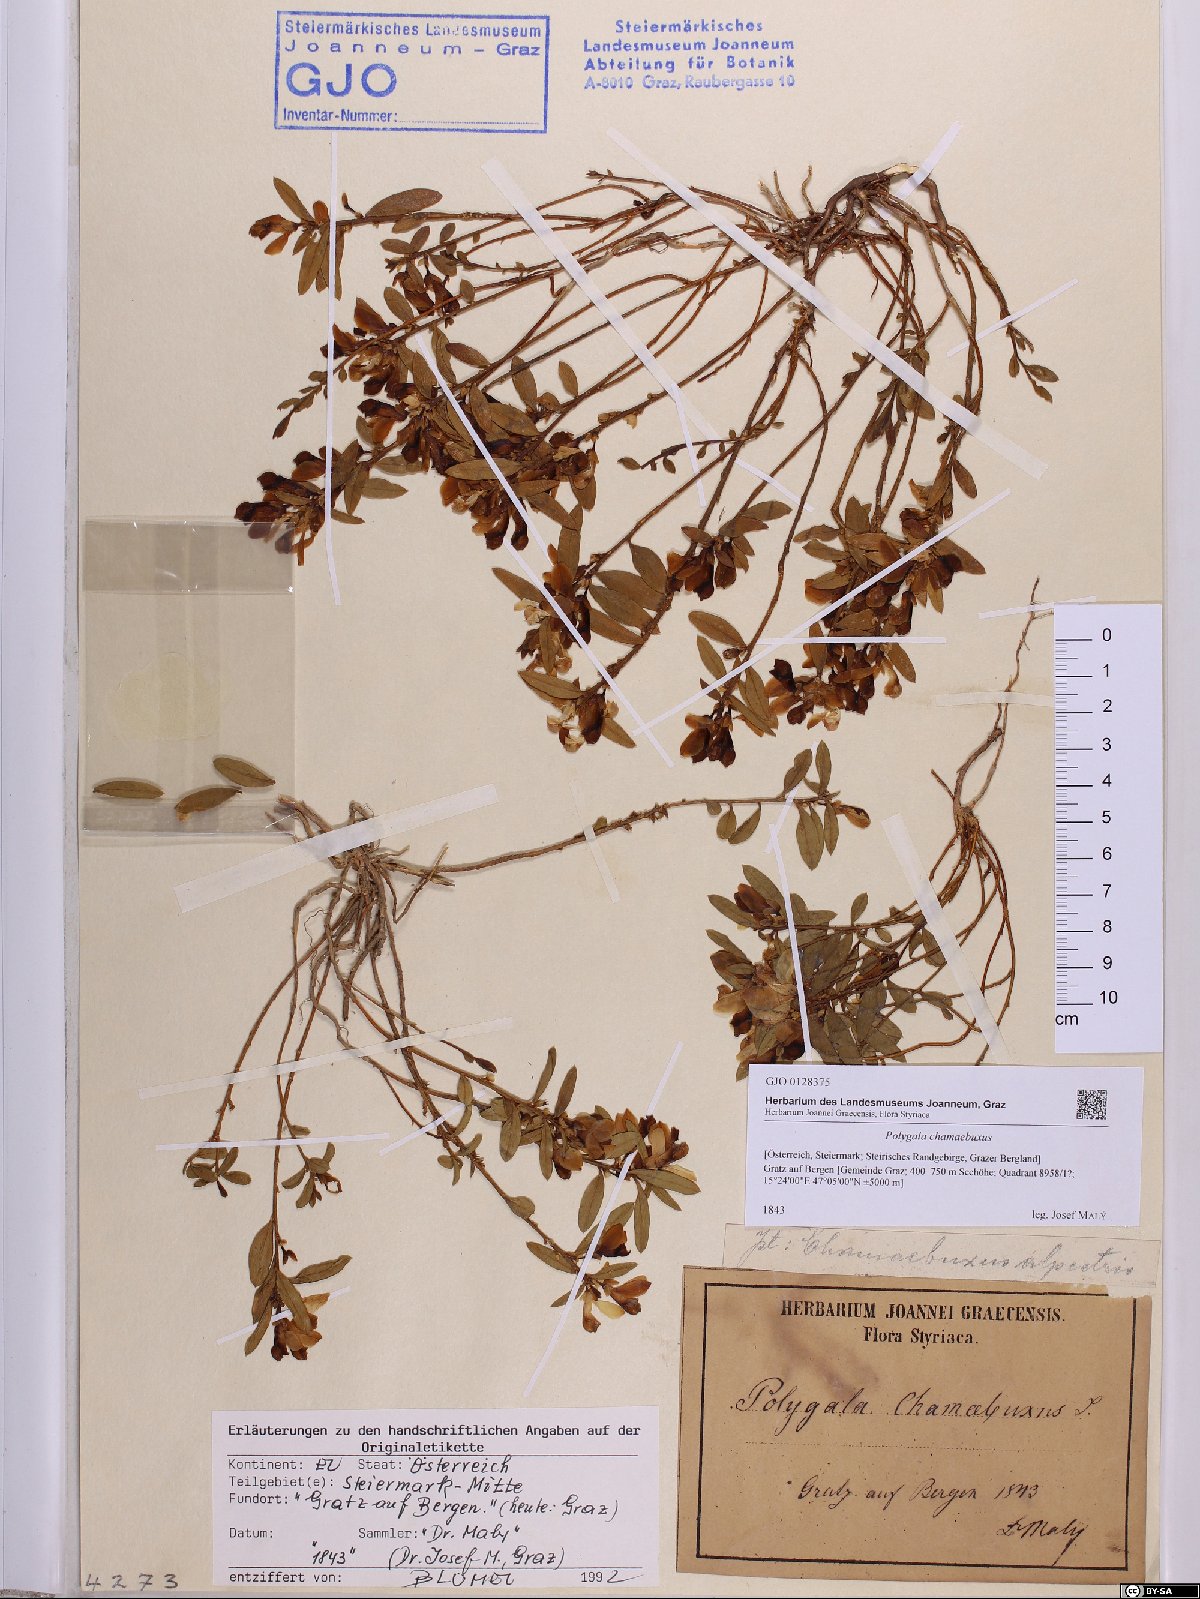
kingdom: Plantae
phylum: Tracheophyta
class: Magnoliopsida
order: Fabales
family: Polygalaceae
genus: Polygaloides
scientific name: Polygaloides chamaebuxus
